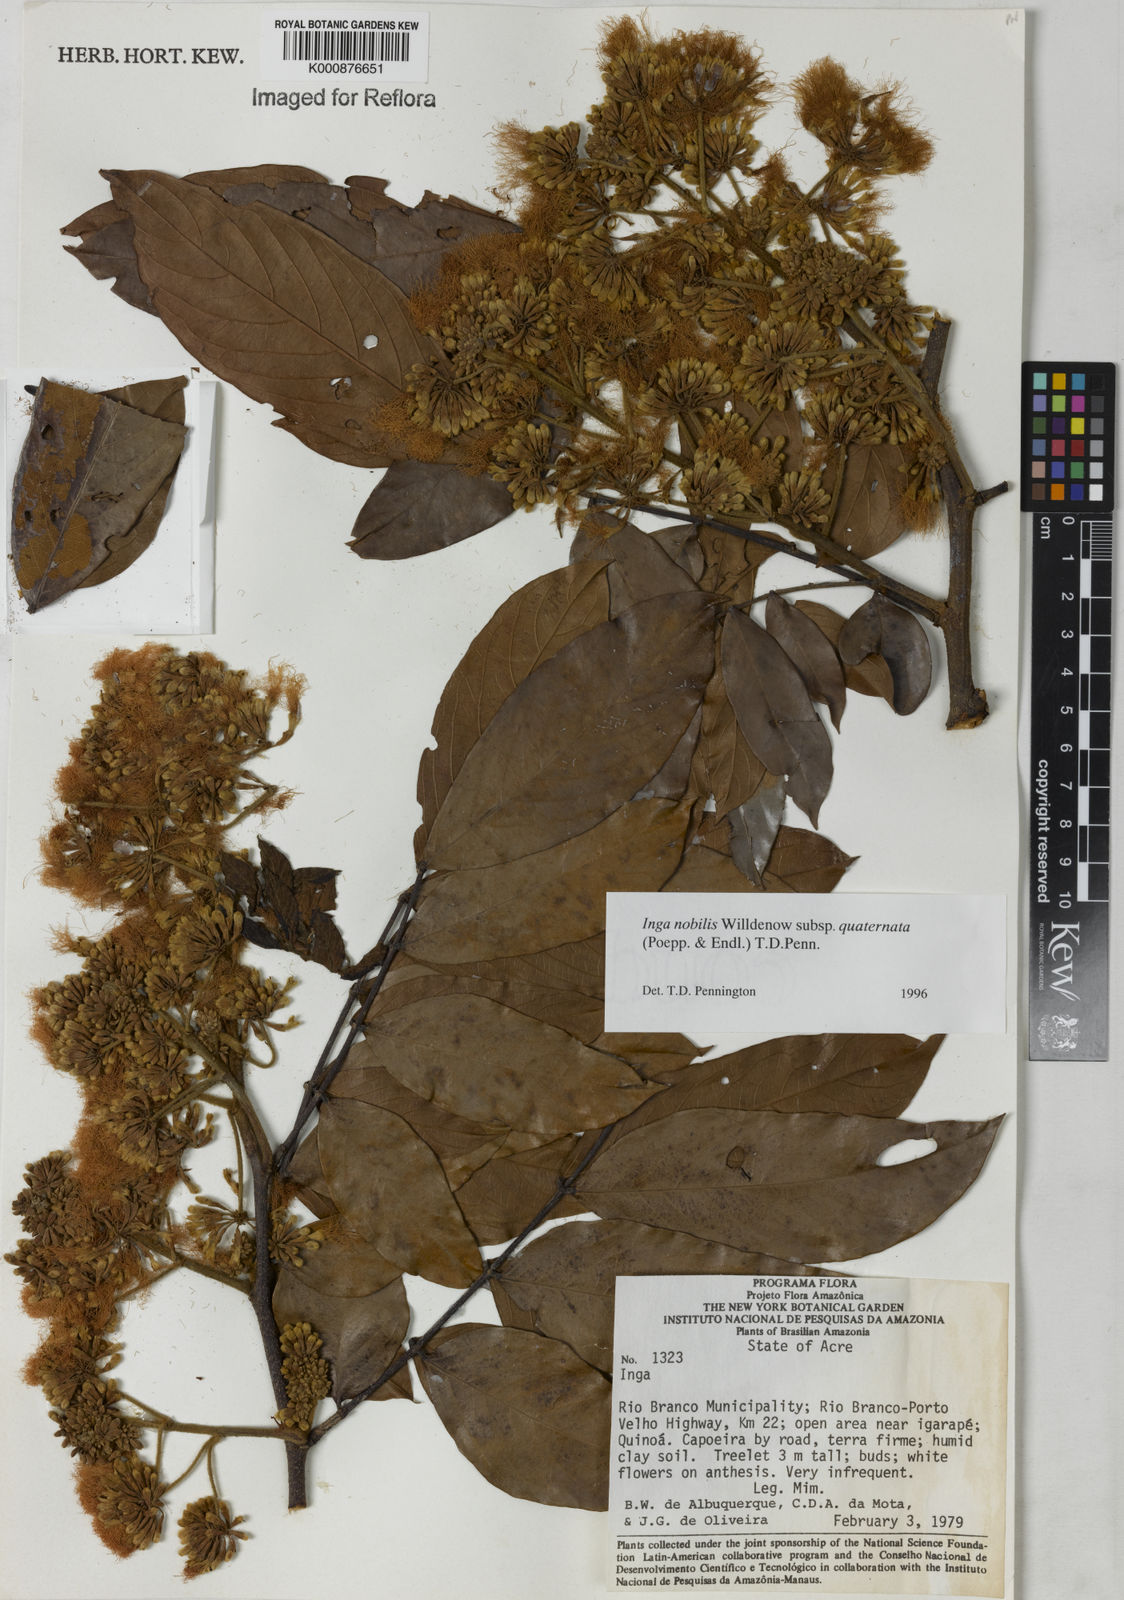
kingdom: Plantae
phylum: Tracheophyta
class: Magnoliopsida
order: Fabales
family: Fabaceae
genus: Inga
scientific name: Inga nobilis
